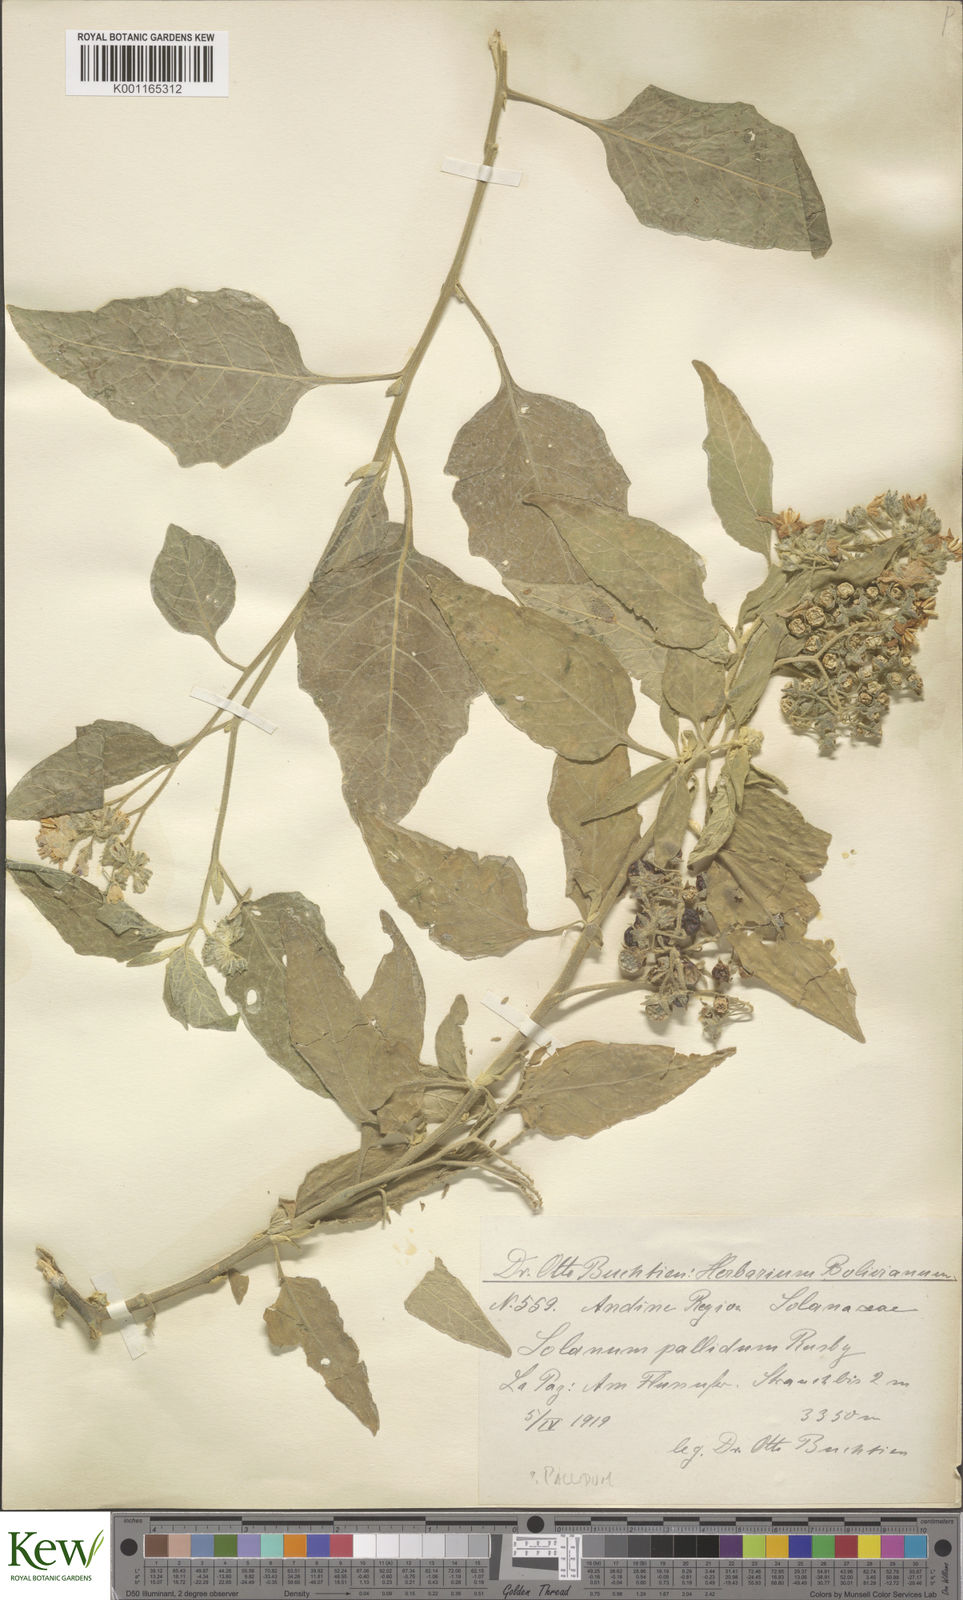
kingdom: Plantae
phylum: Tracheophyta
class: Magnoliopsida
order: Solanales
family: Solanaceae
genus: Solanum
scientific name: Solanum pallidum
